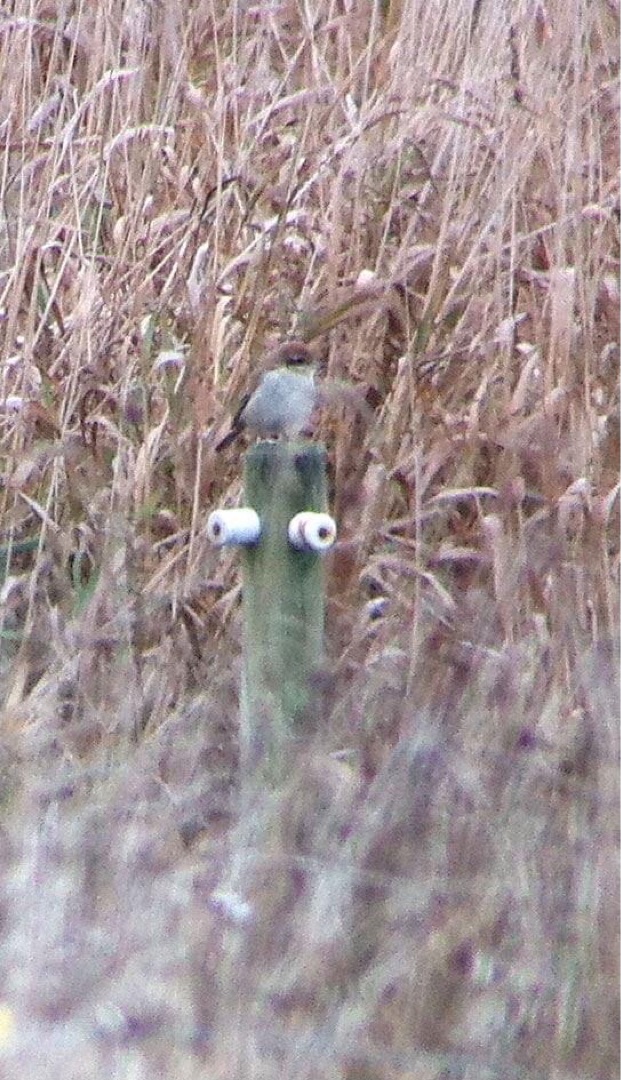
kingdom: Animalia
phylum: Chordata
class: Aves
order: Passeriformes
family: Laniidae
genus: Lanius
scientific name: Lanius cristatus
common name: Brun tornskade
